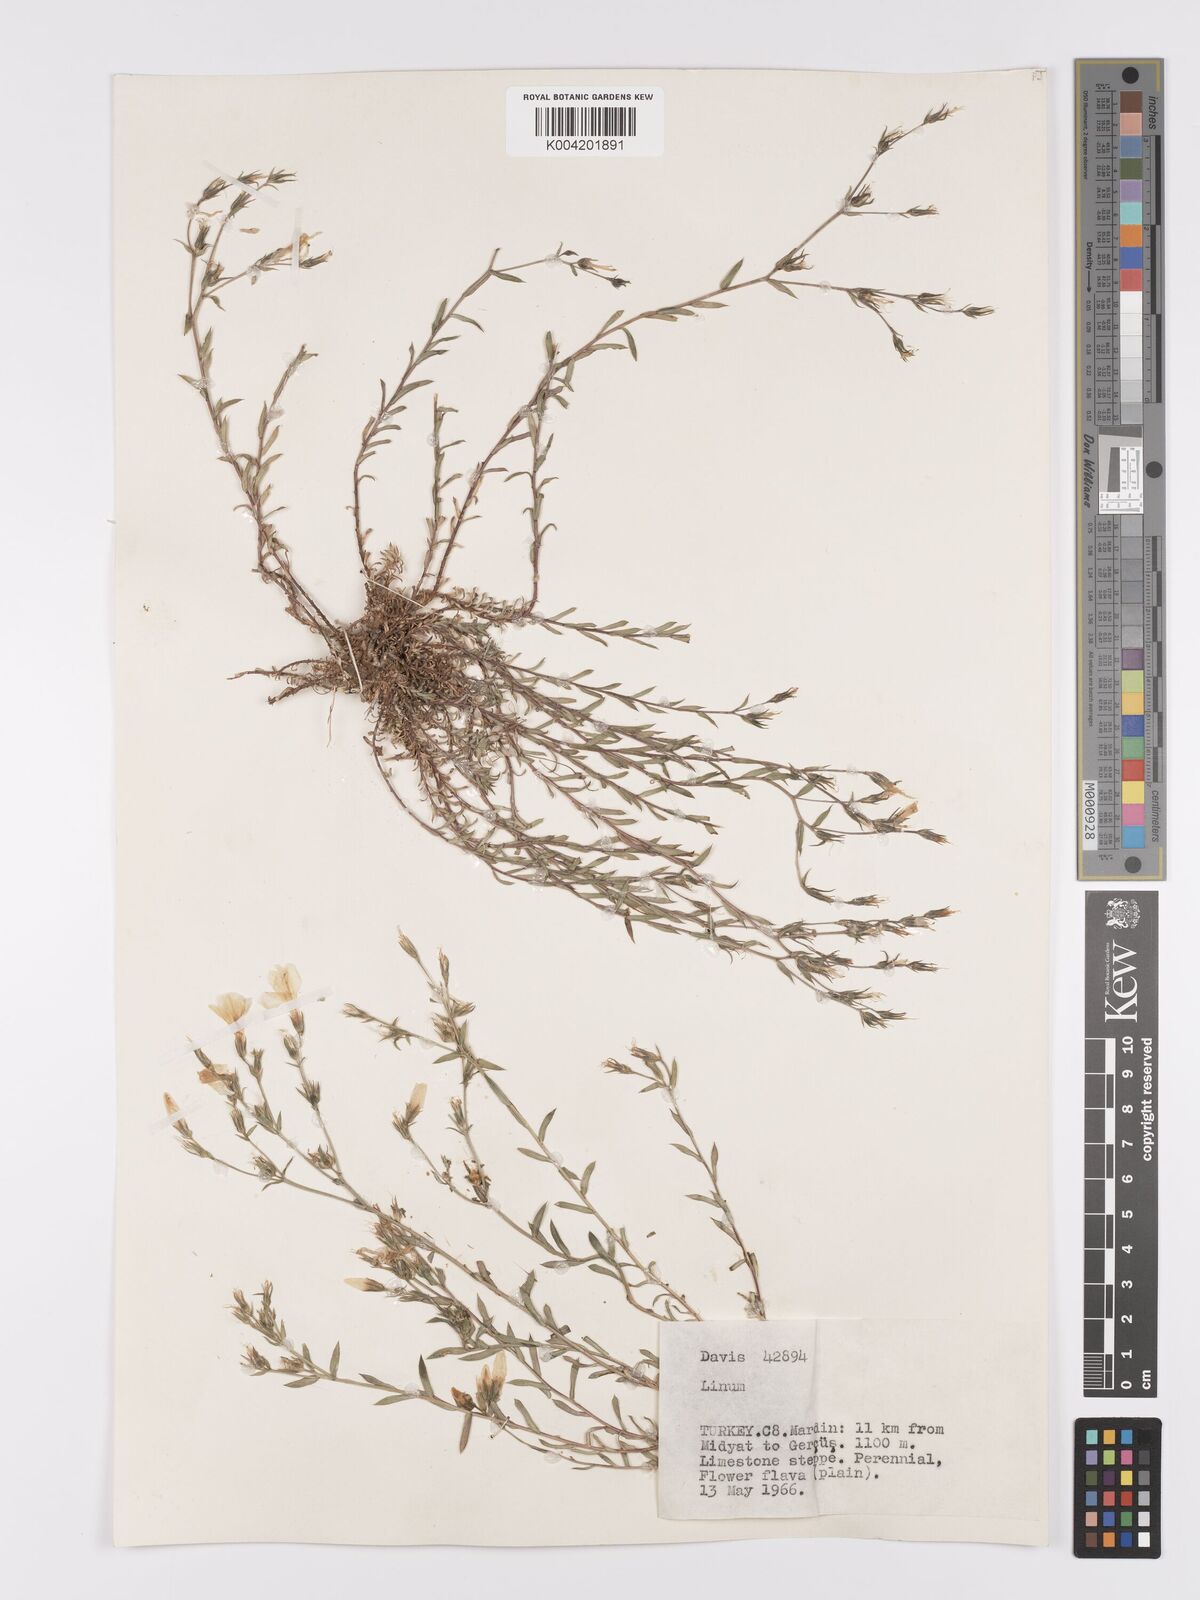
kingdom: Plantae
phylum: Tracheophyta
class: Magnoliopsida
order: Malpighiales
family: Linaceae
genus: Linum
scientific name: Linum
